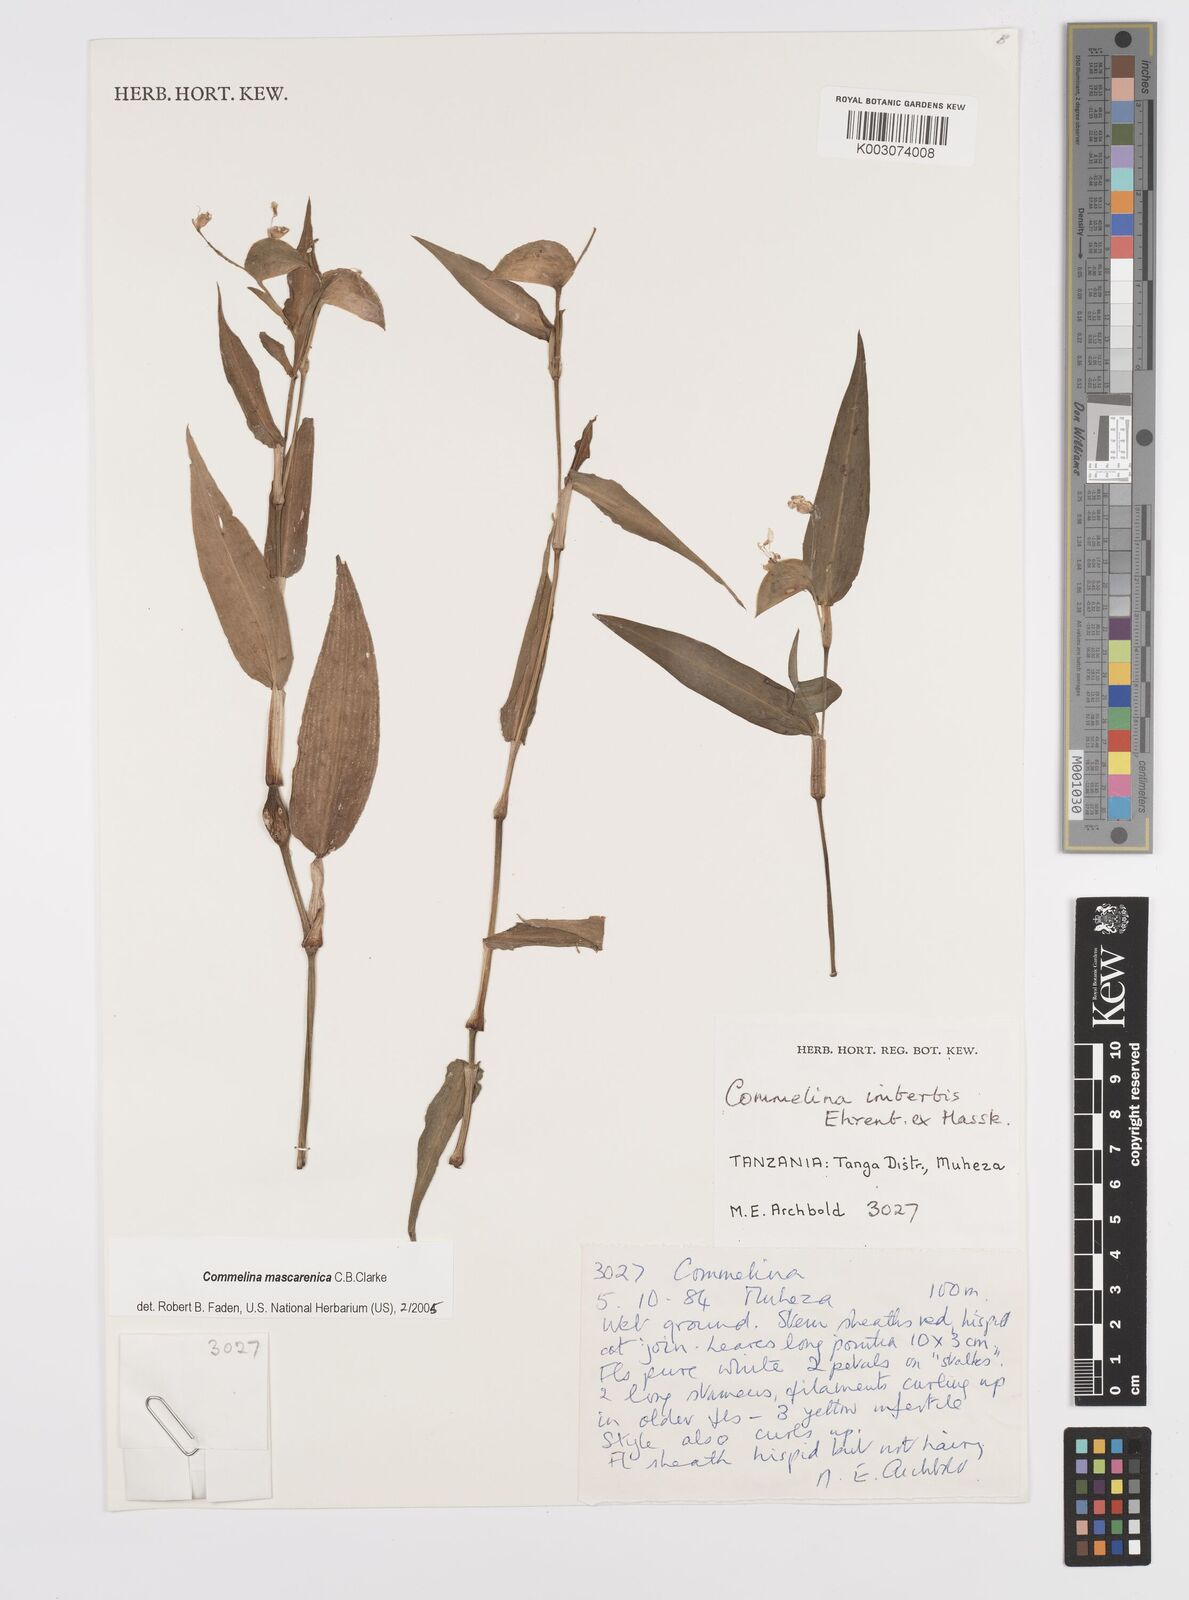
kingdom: Plantae
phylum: Tracheophyta
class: Liliopsida
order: Commelinales
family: Commelinaceae
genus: Commelina
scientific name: Commelina mascarenica
